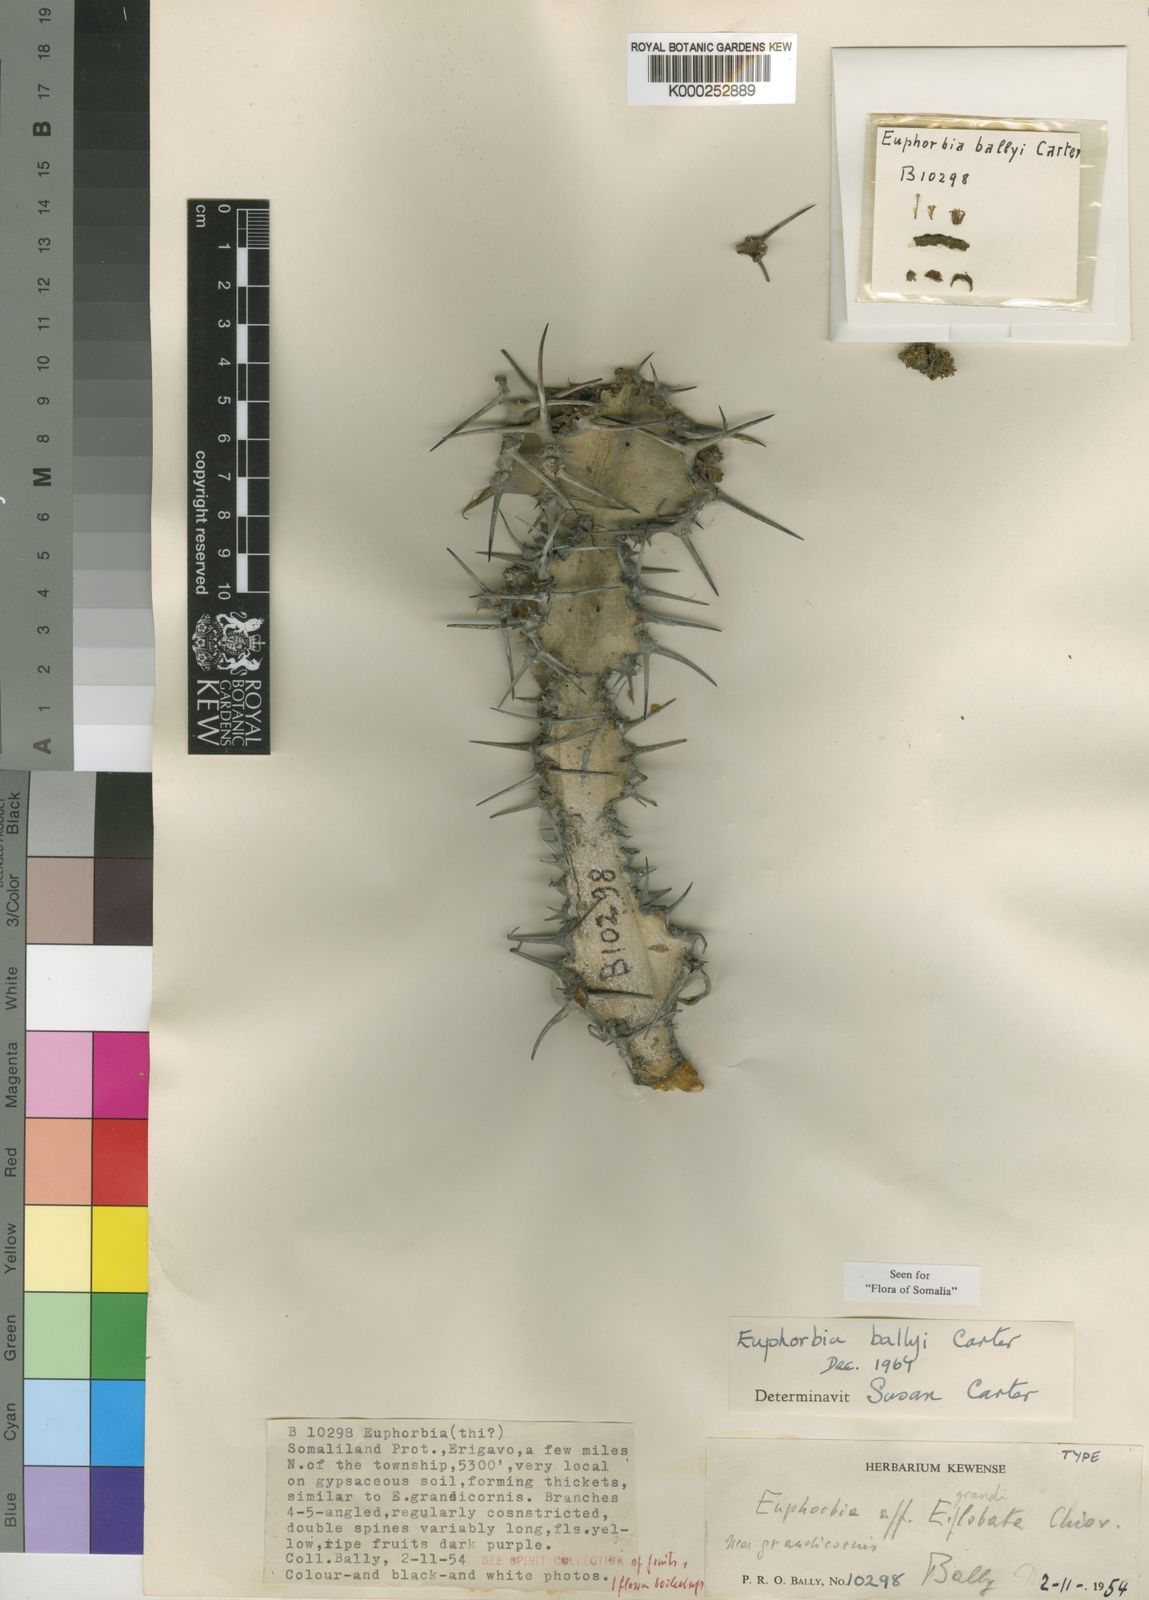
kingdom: Plantae
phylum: Tracheophyta
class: Magnoliopsida
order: Malpighiales
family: Euphorbiaceae
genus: Euphorbia
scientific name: Euphorbia ballyi
